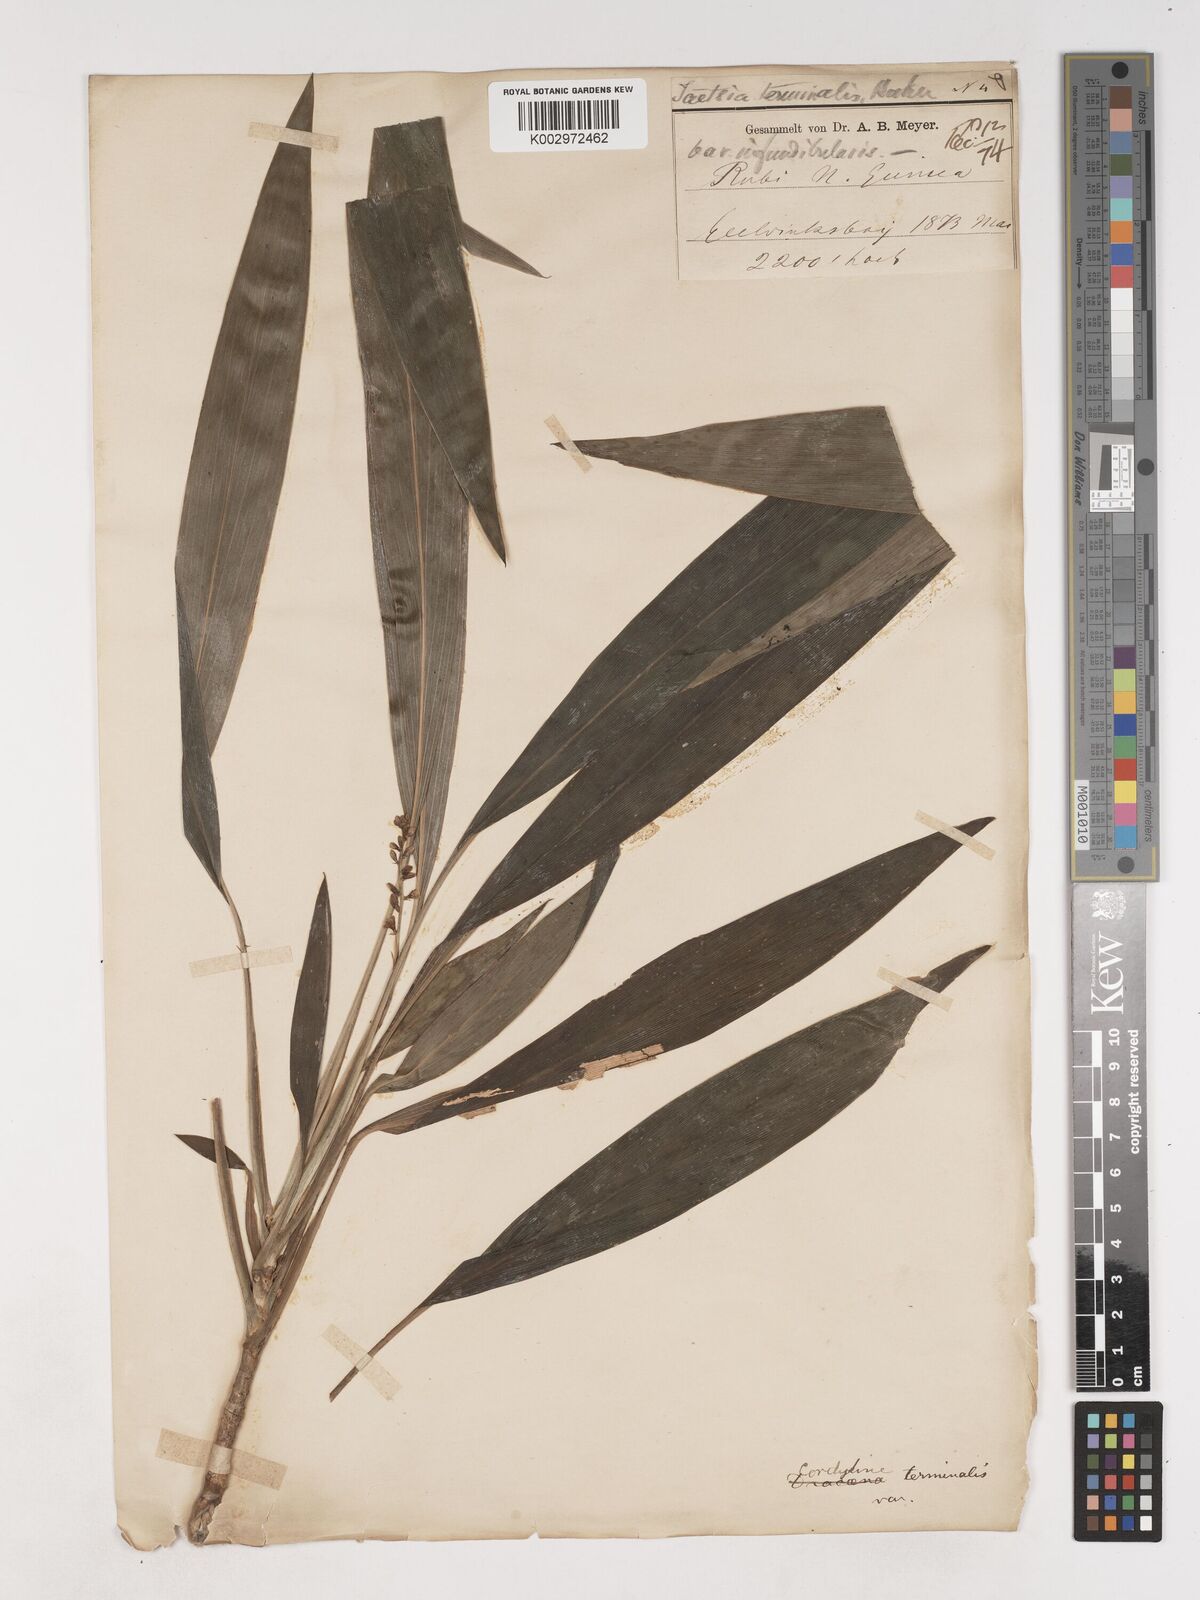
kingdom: Plantae
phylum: Tracheophyta
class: Liliopsida
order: Asparagales
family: Asparagaceae
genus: Cordyline
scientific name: Cordyline fruticosa
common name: Good-luck-plant
